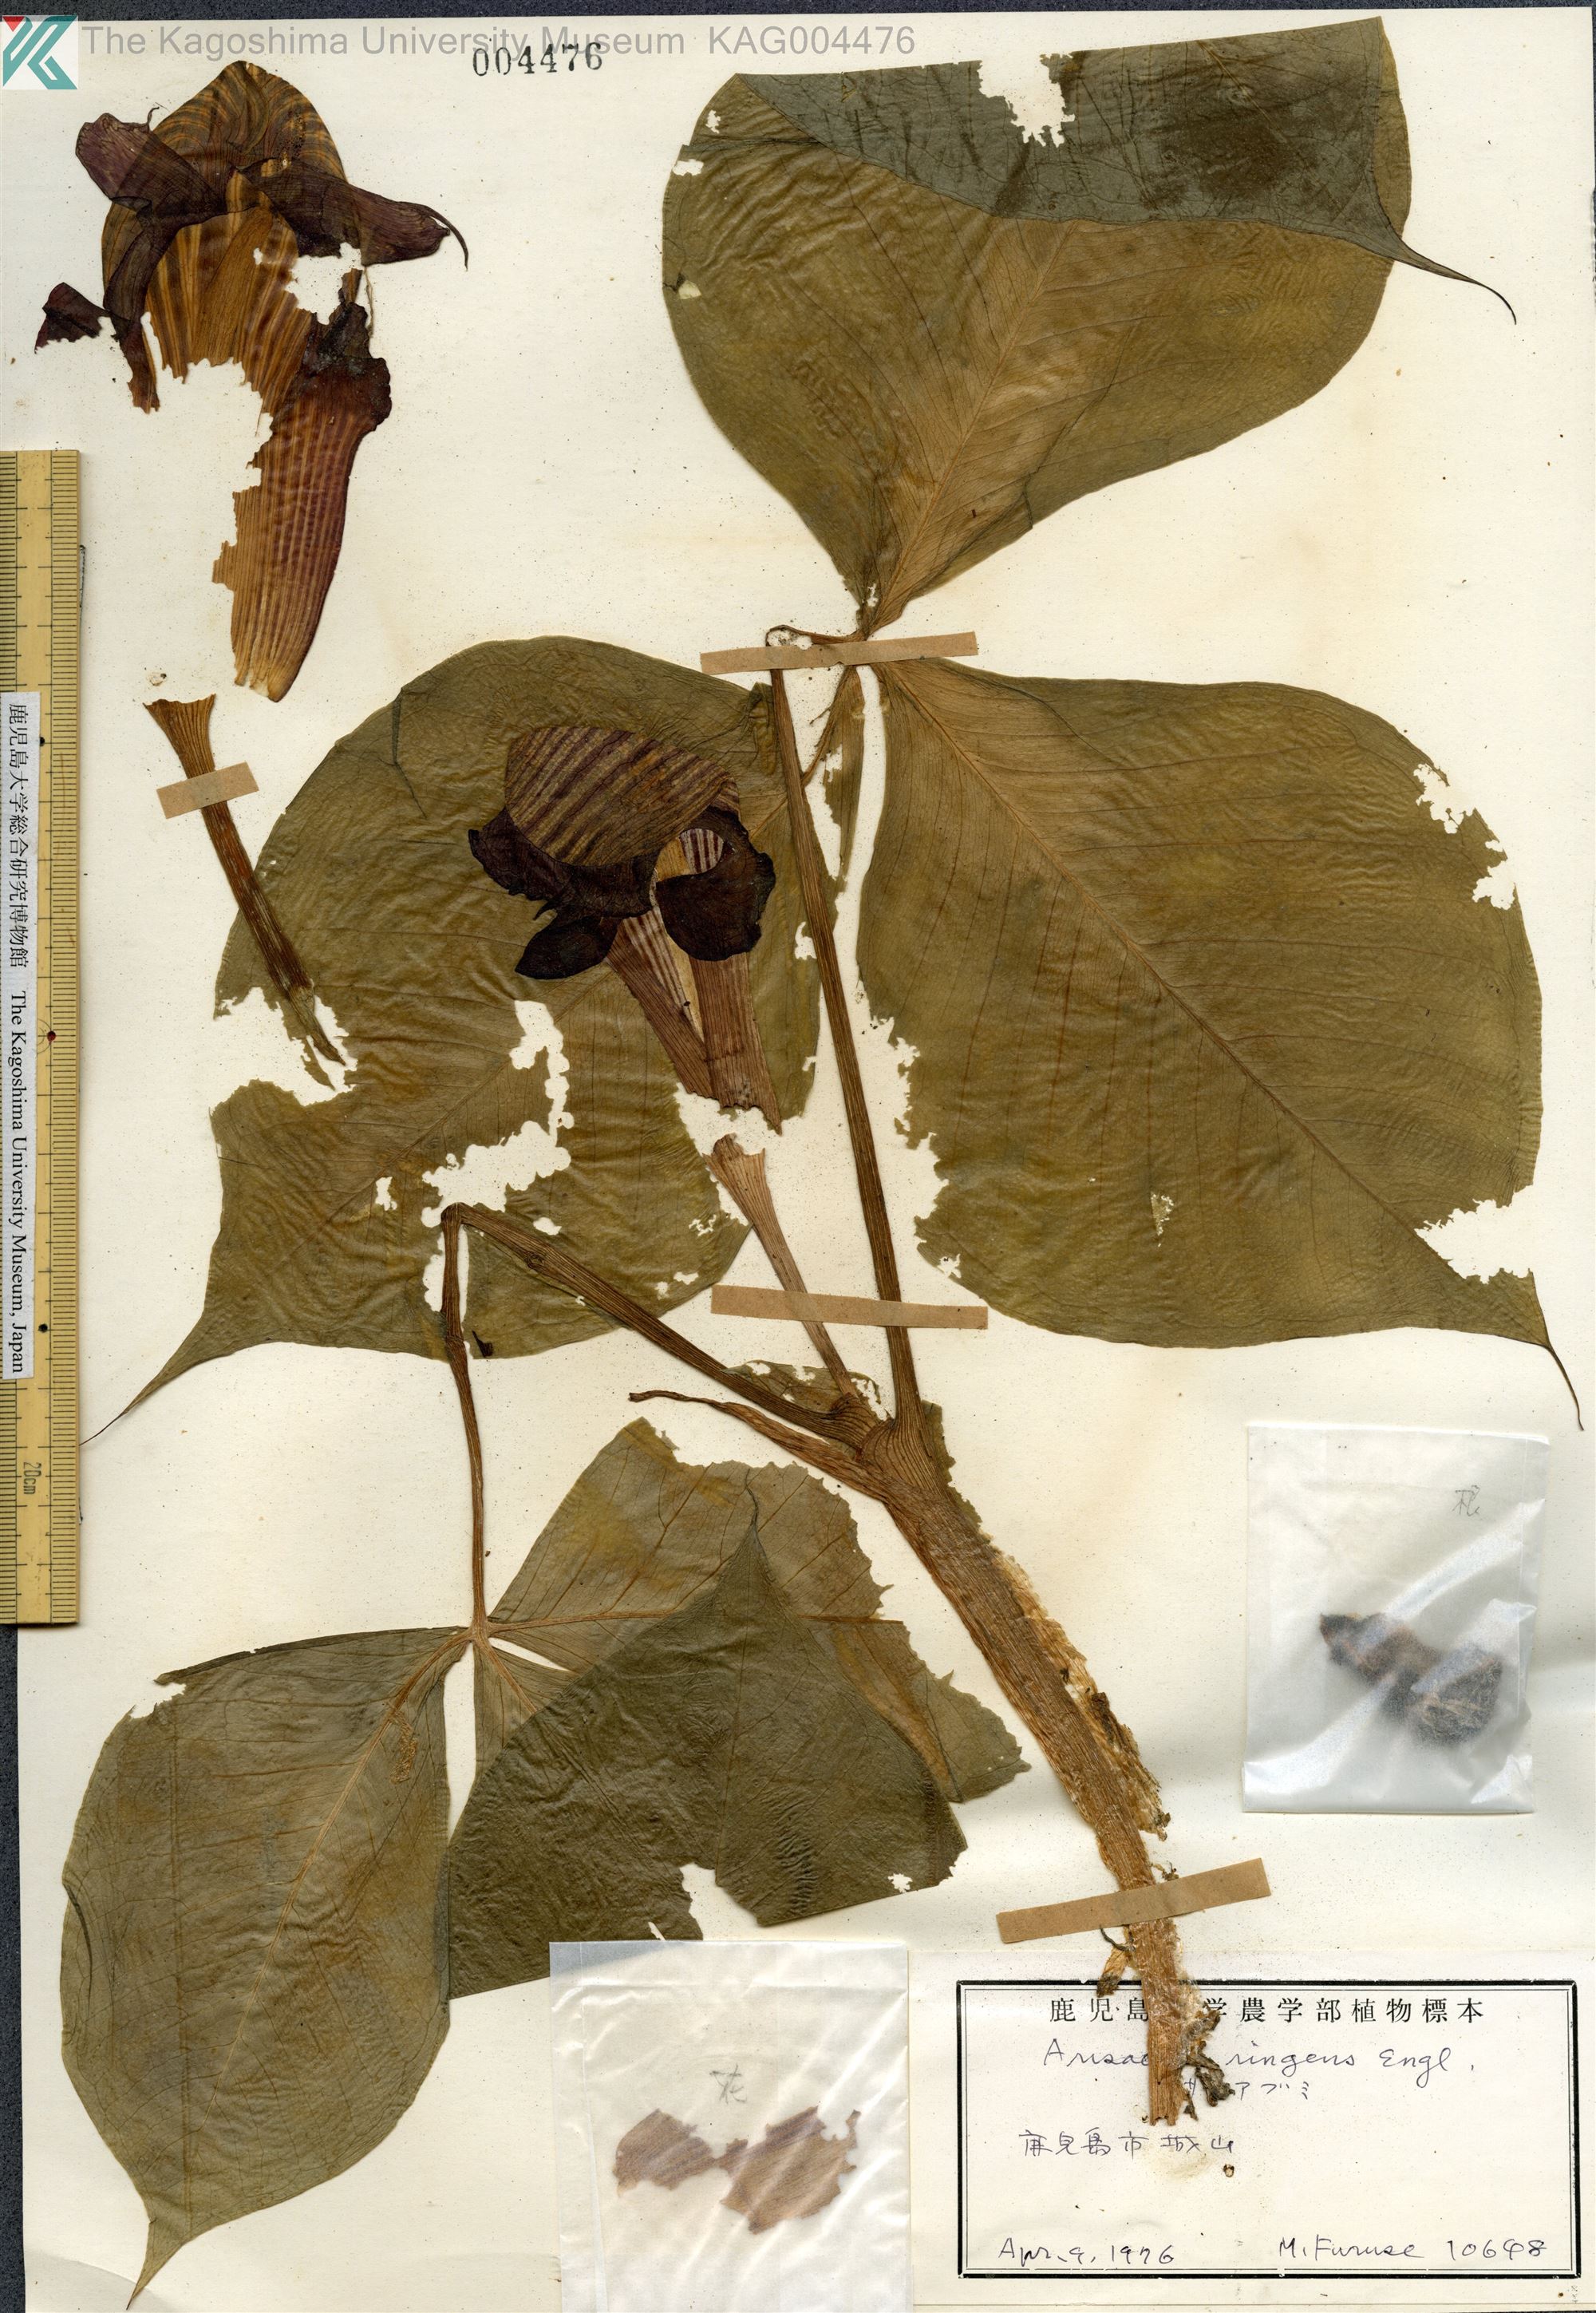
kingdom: Plantae
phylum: Tracheophyta
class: Liliopsida
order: Alismatales
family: Araceae
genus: Arisaema
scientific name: Arisaema ringens
